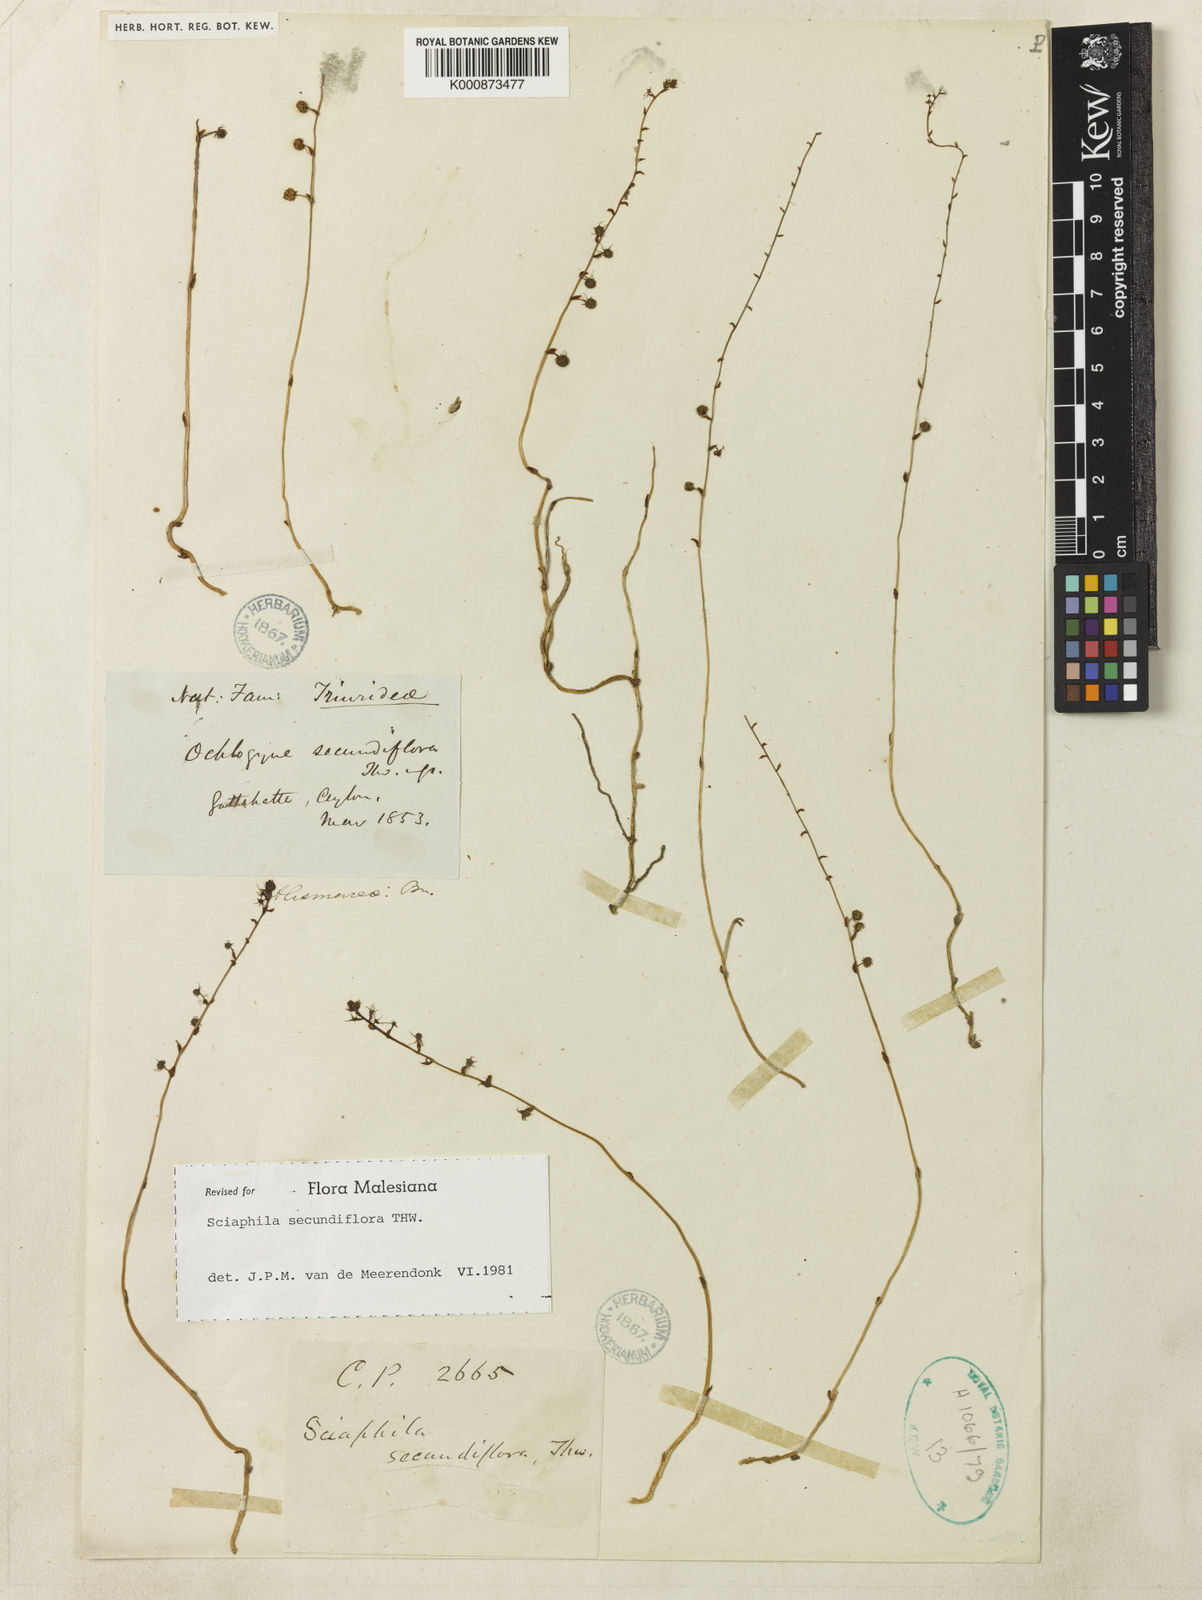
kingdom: Plantae
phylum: Tracheophyta
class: Liliopsida
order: Pandanales
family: Triuridaceae
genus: Sciaphila
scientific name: Sciaphila secundiflora
